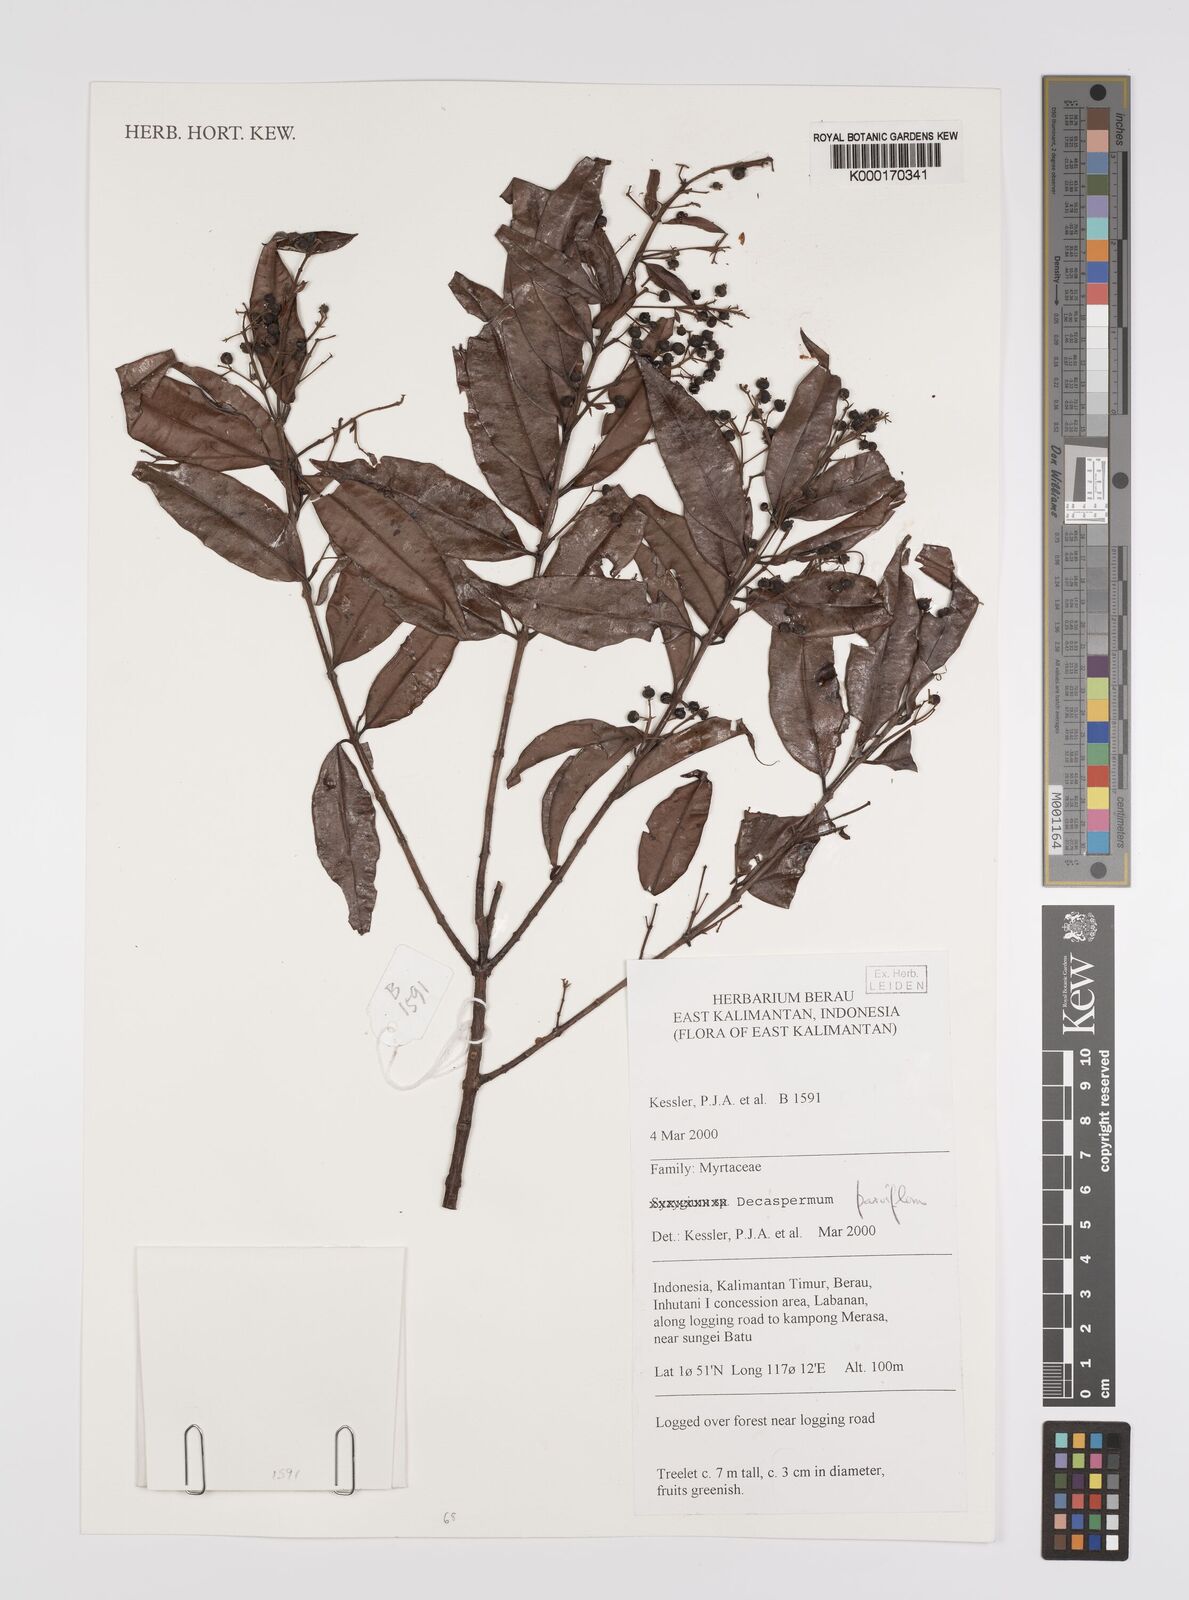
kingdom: Plantae
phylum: Tracheophyta
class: Magnoliopsida
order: Myrtales
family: Myrtaceae
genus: Decaspermum
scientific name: Decaspermum parviflorum
